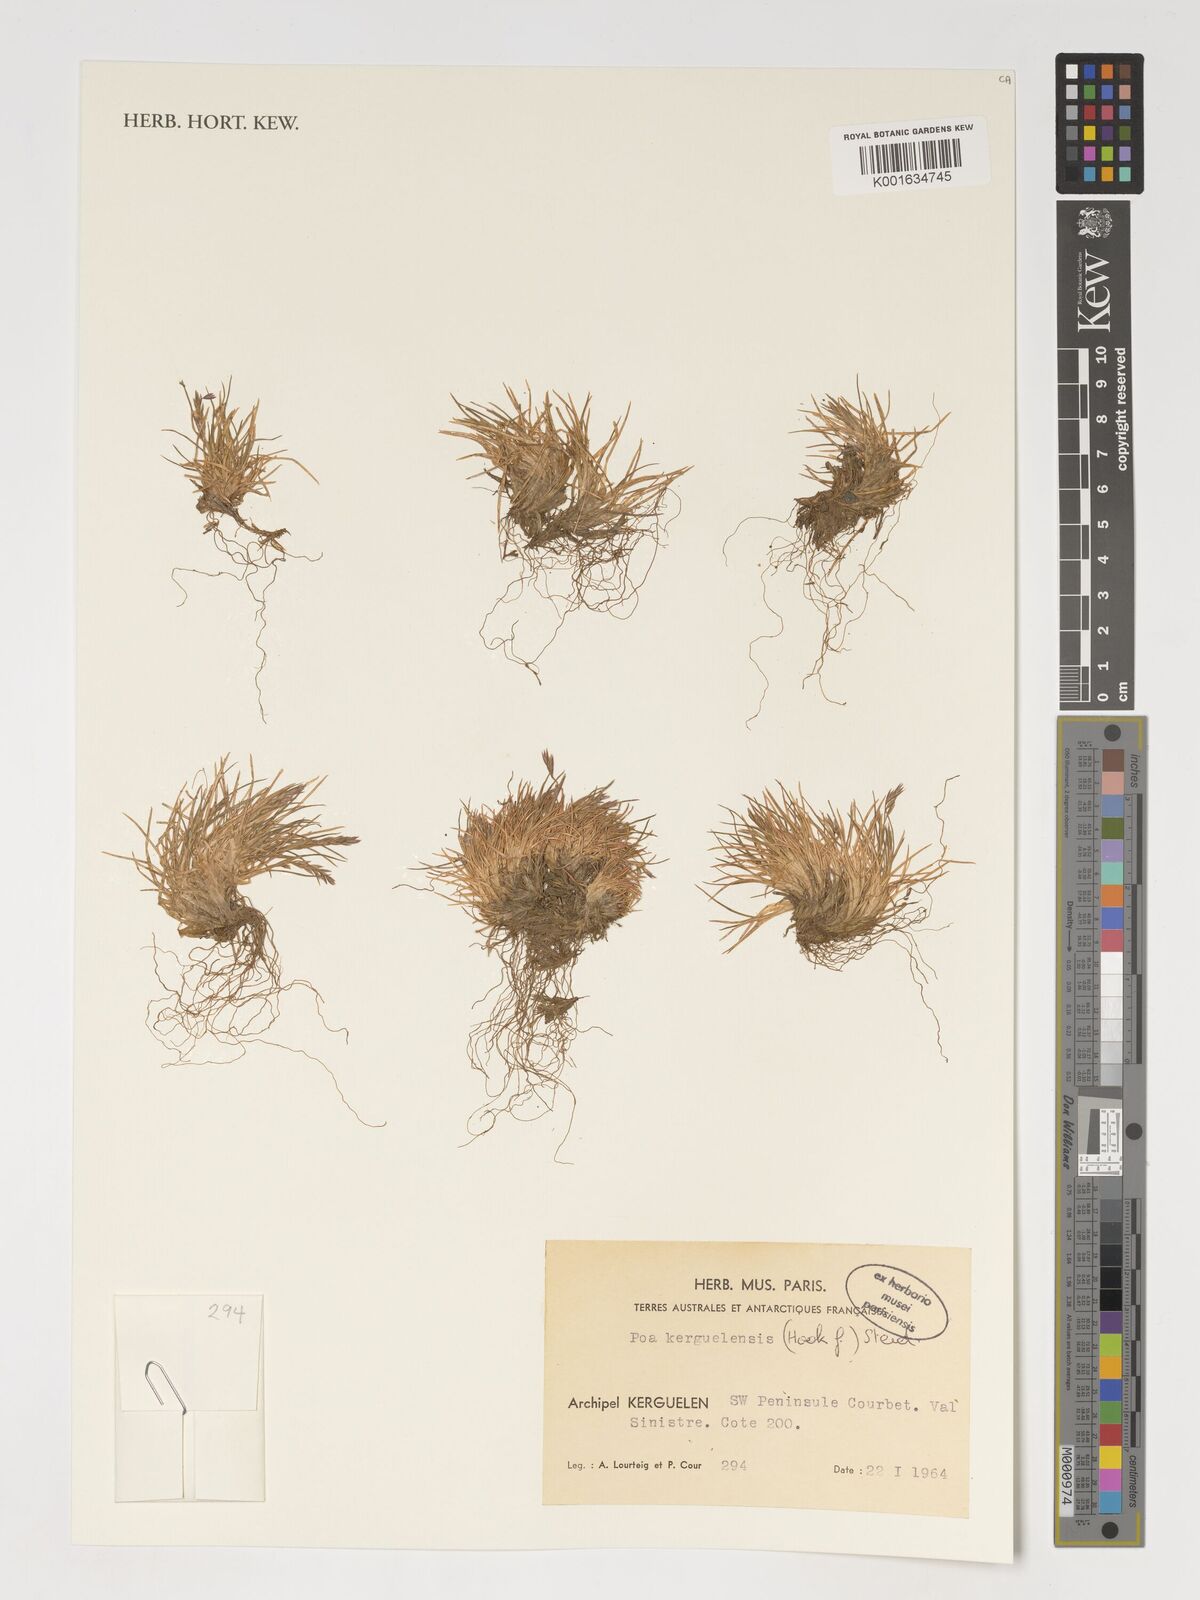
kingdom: Plantae
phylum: Tracheophyta
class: Liliopsida
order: Poales
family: Poaceae
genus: Poa
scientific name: Poa kerguelensis
